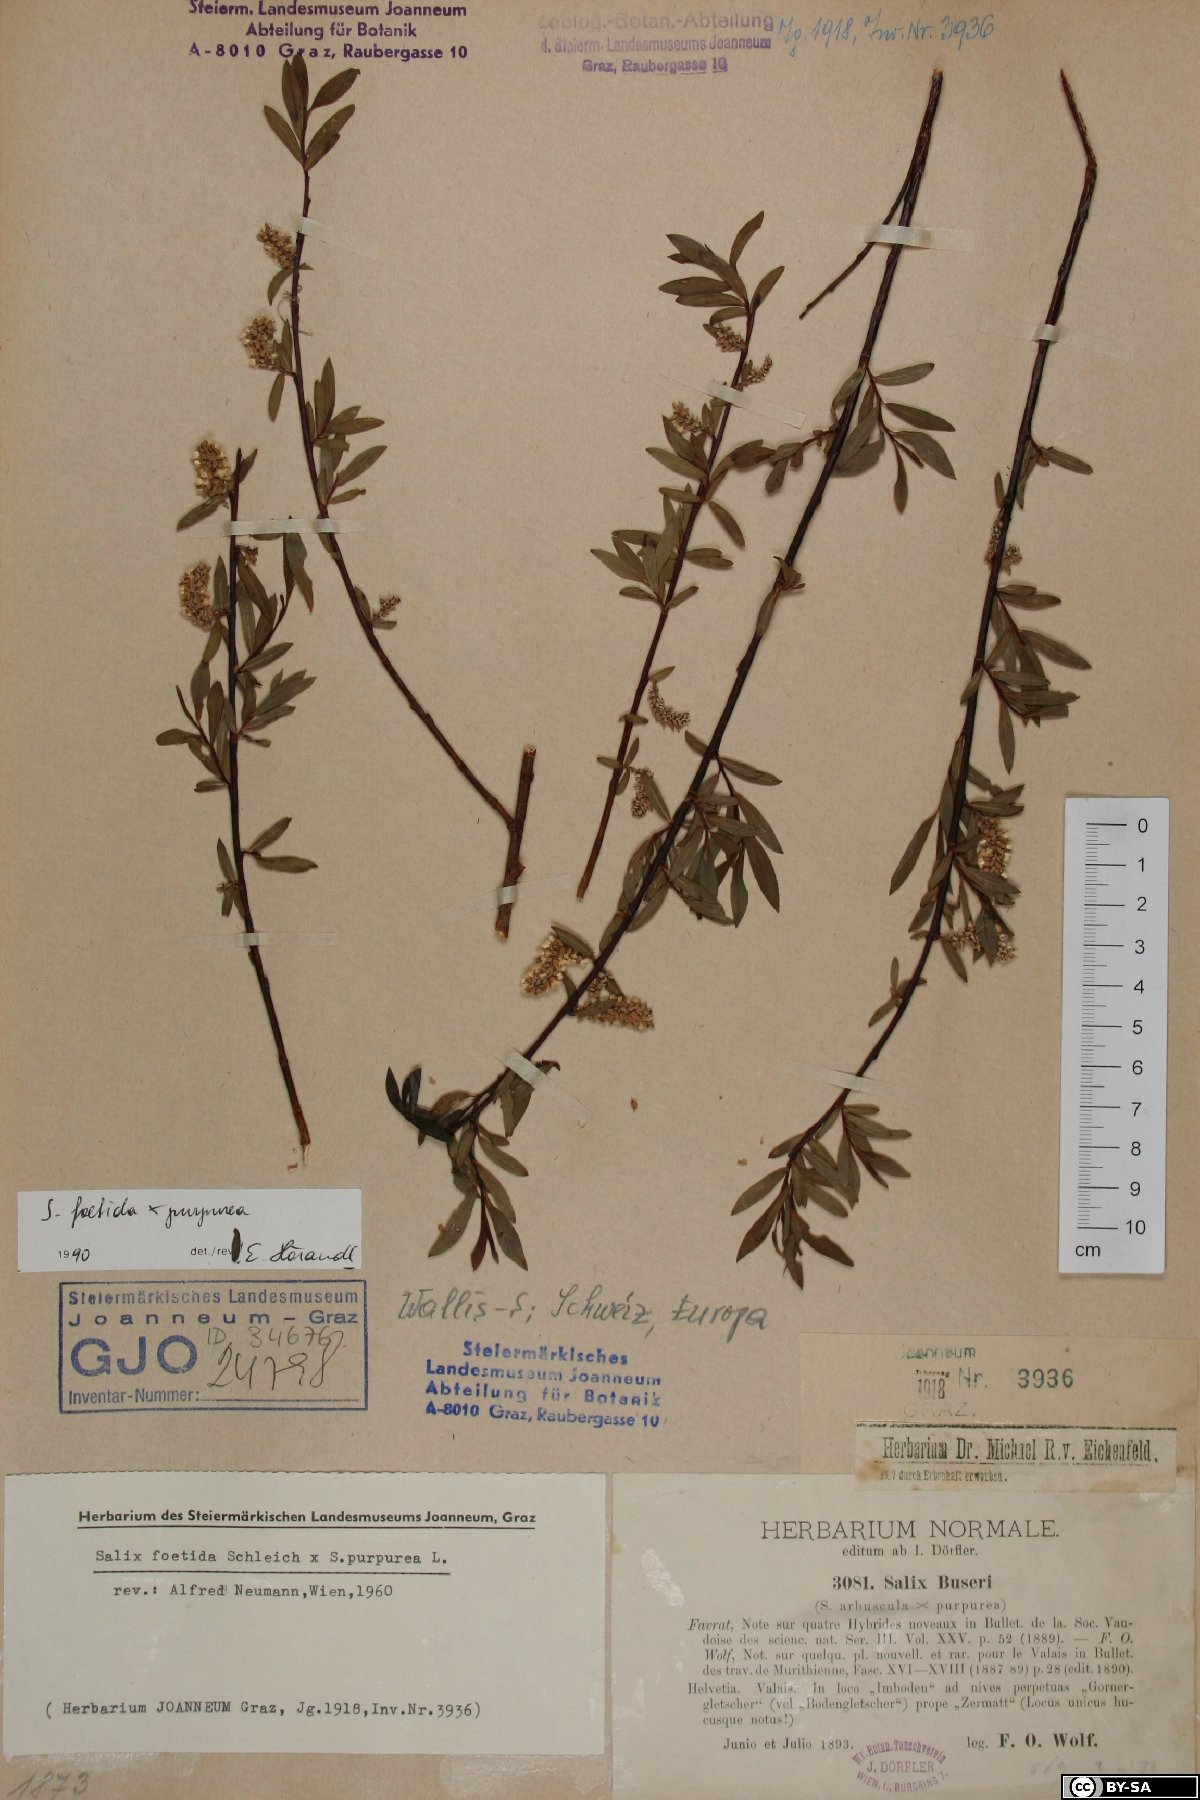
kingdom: Plantae
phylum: Tracheophyta
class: Magnoliopsida
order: Malpighiales
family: Salicaceae
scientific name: Salicaceae
